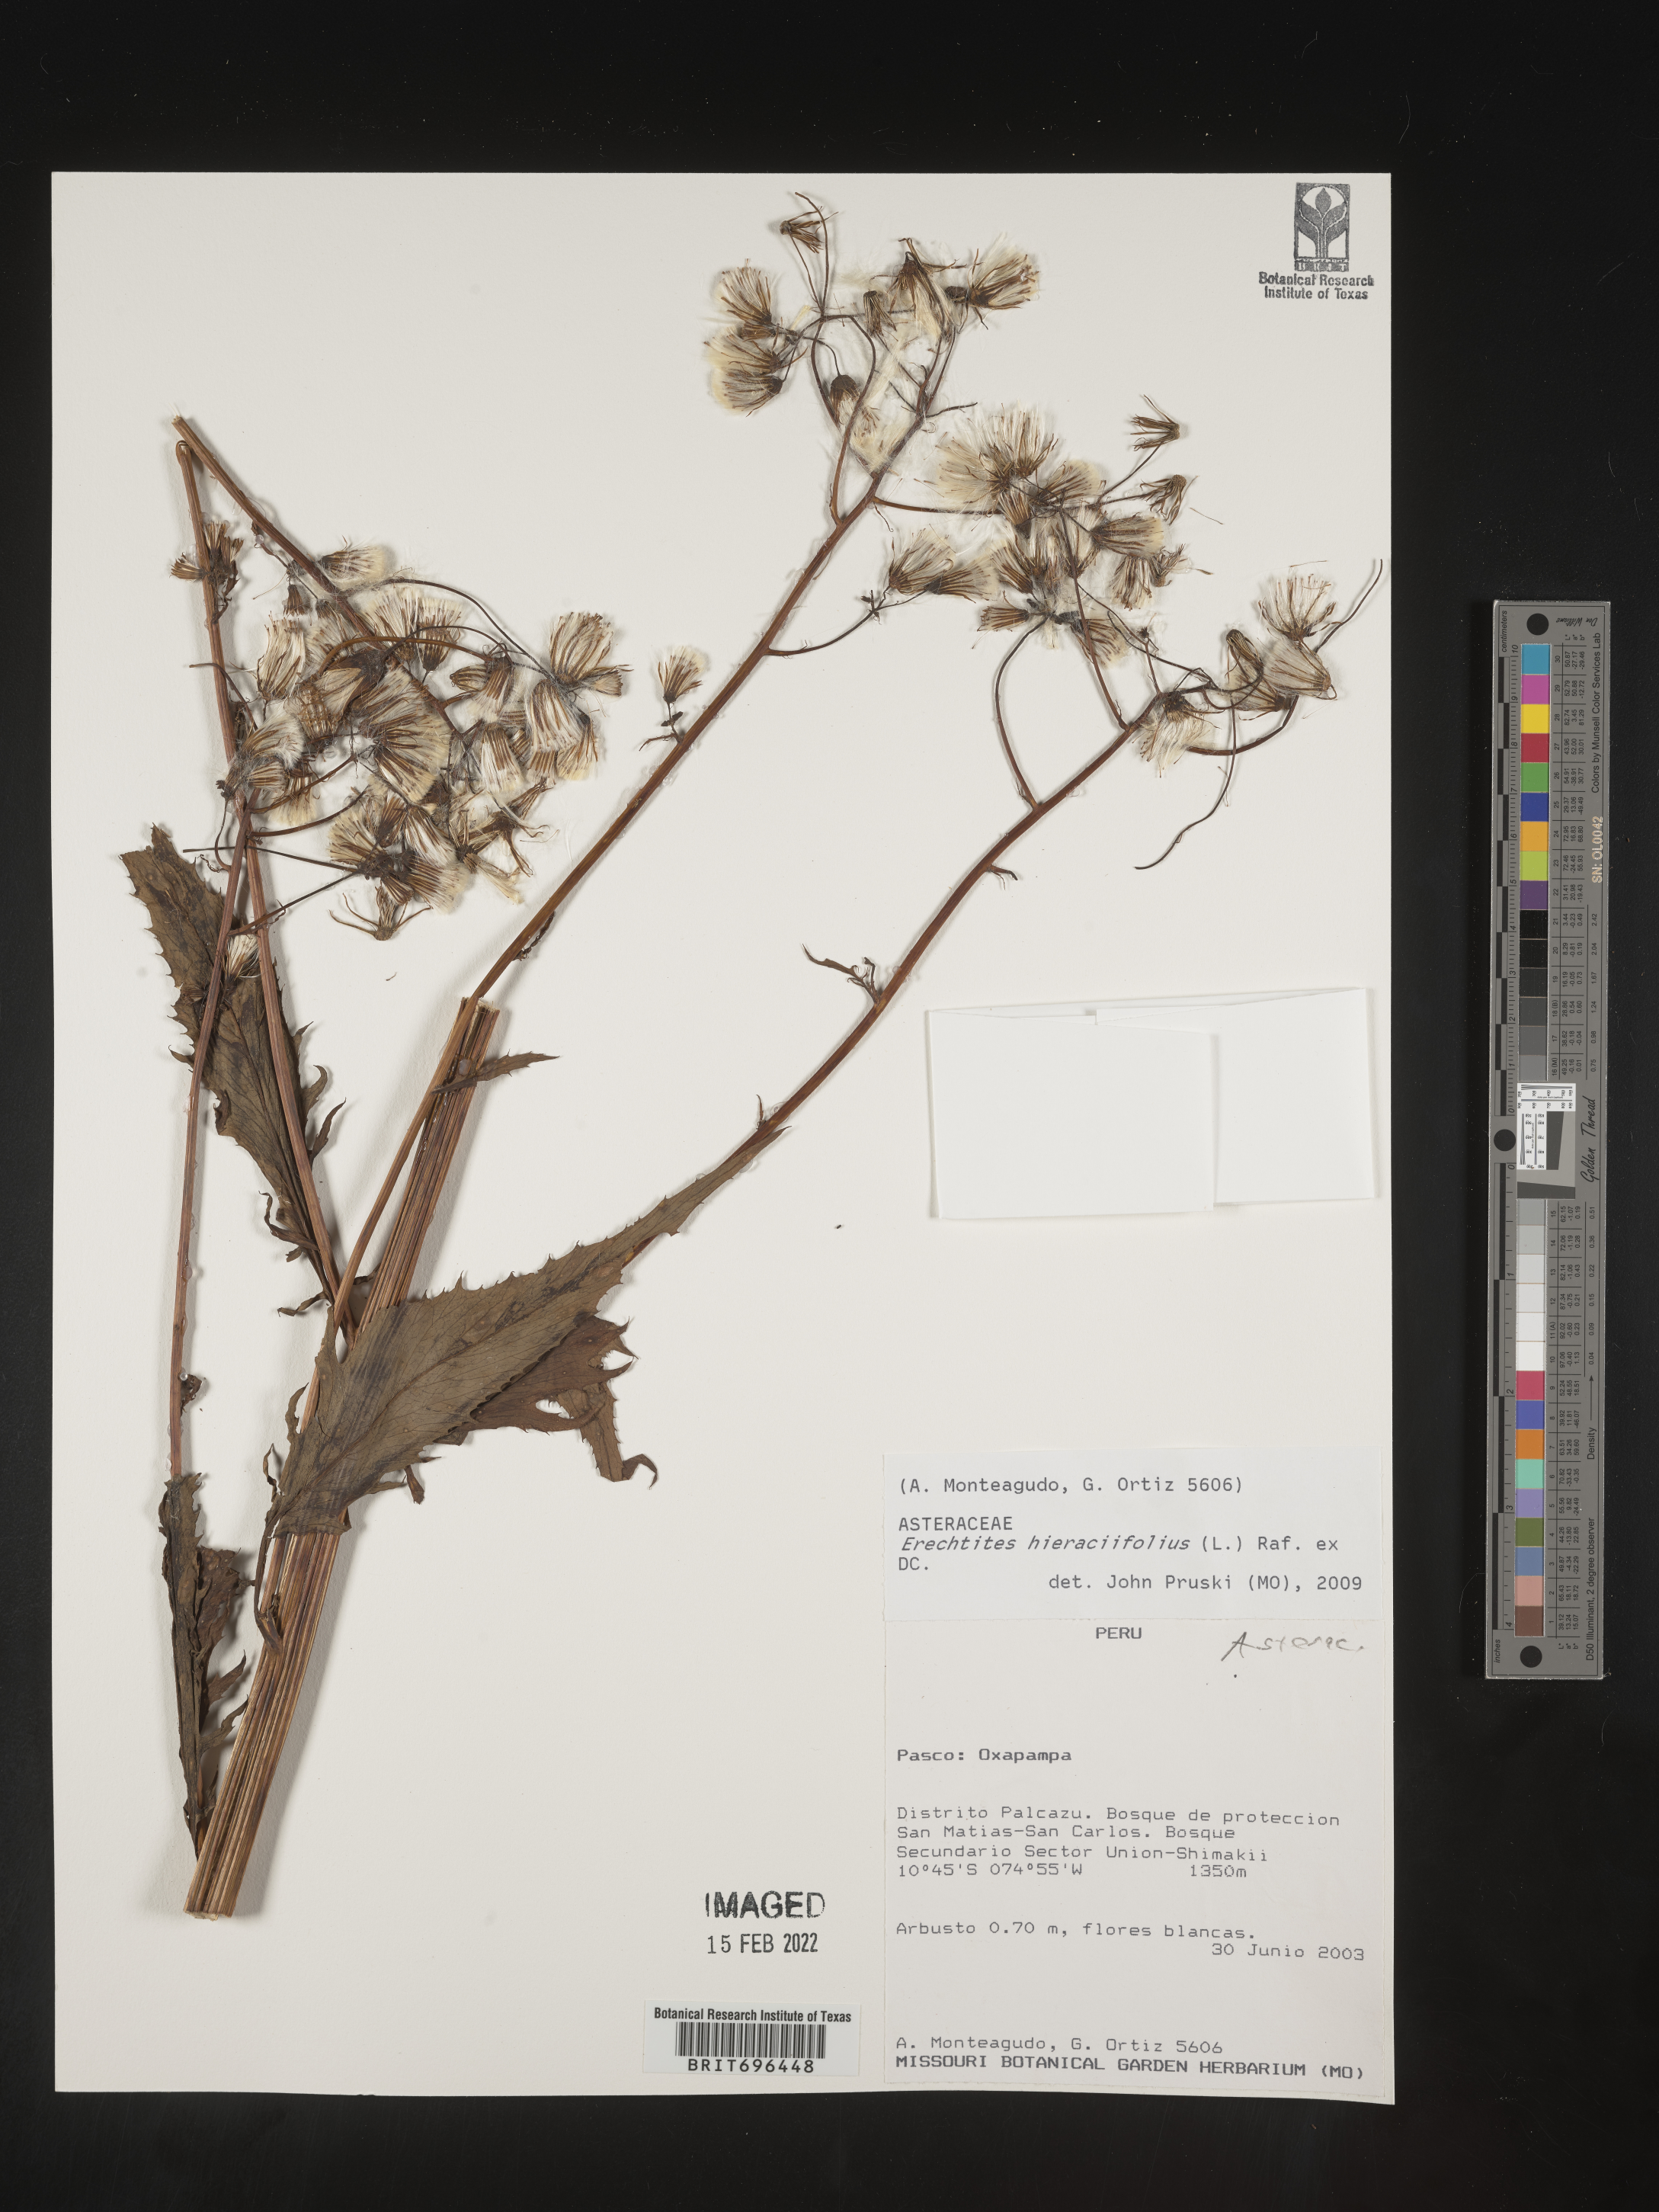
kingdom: Plantae
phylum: Tracheophyta
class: Magnoliopsida
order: Asterales
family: Asteraceae
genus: Erechtites
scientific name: Erechtites
